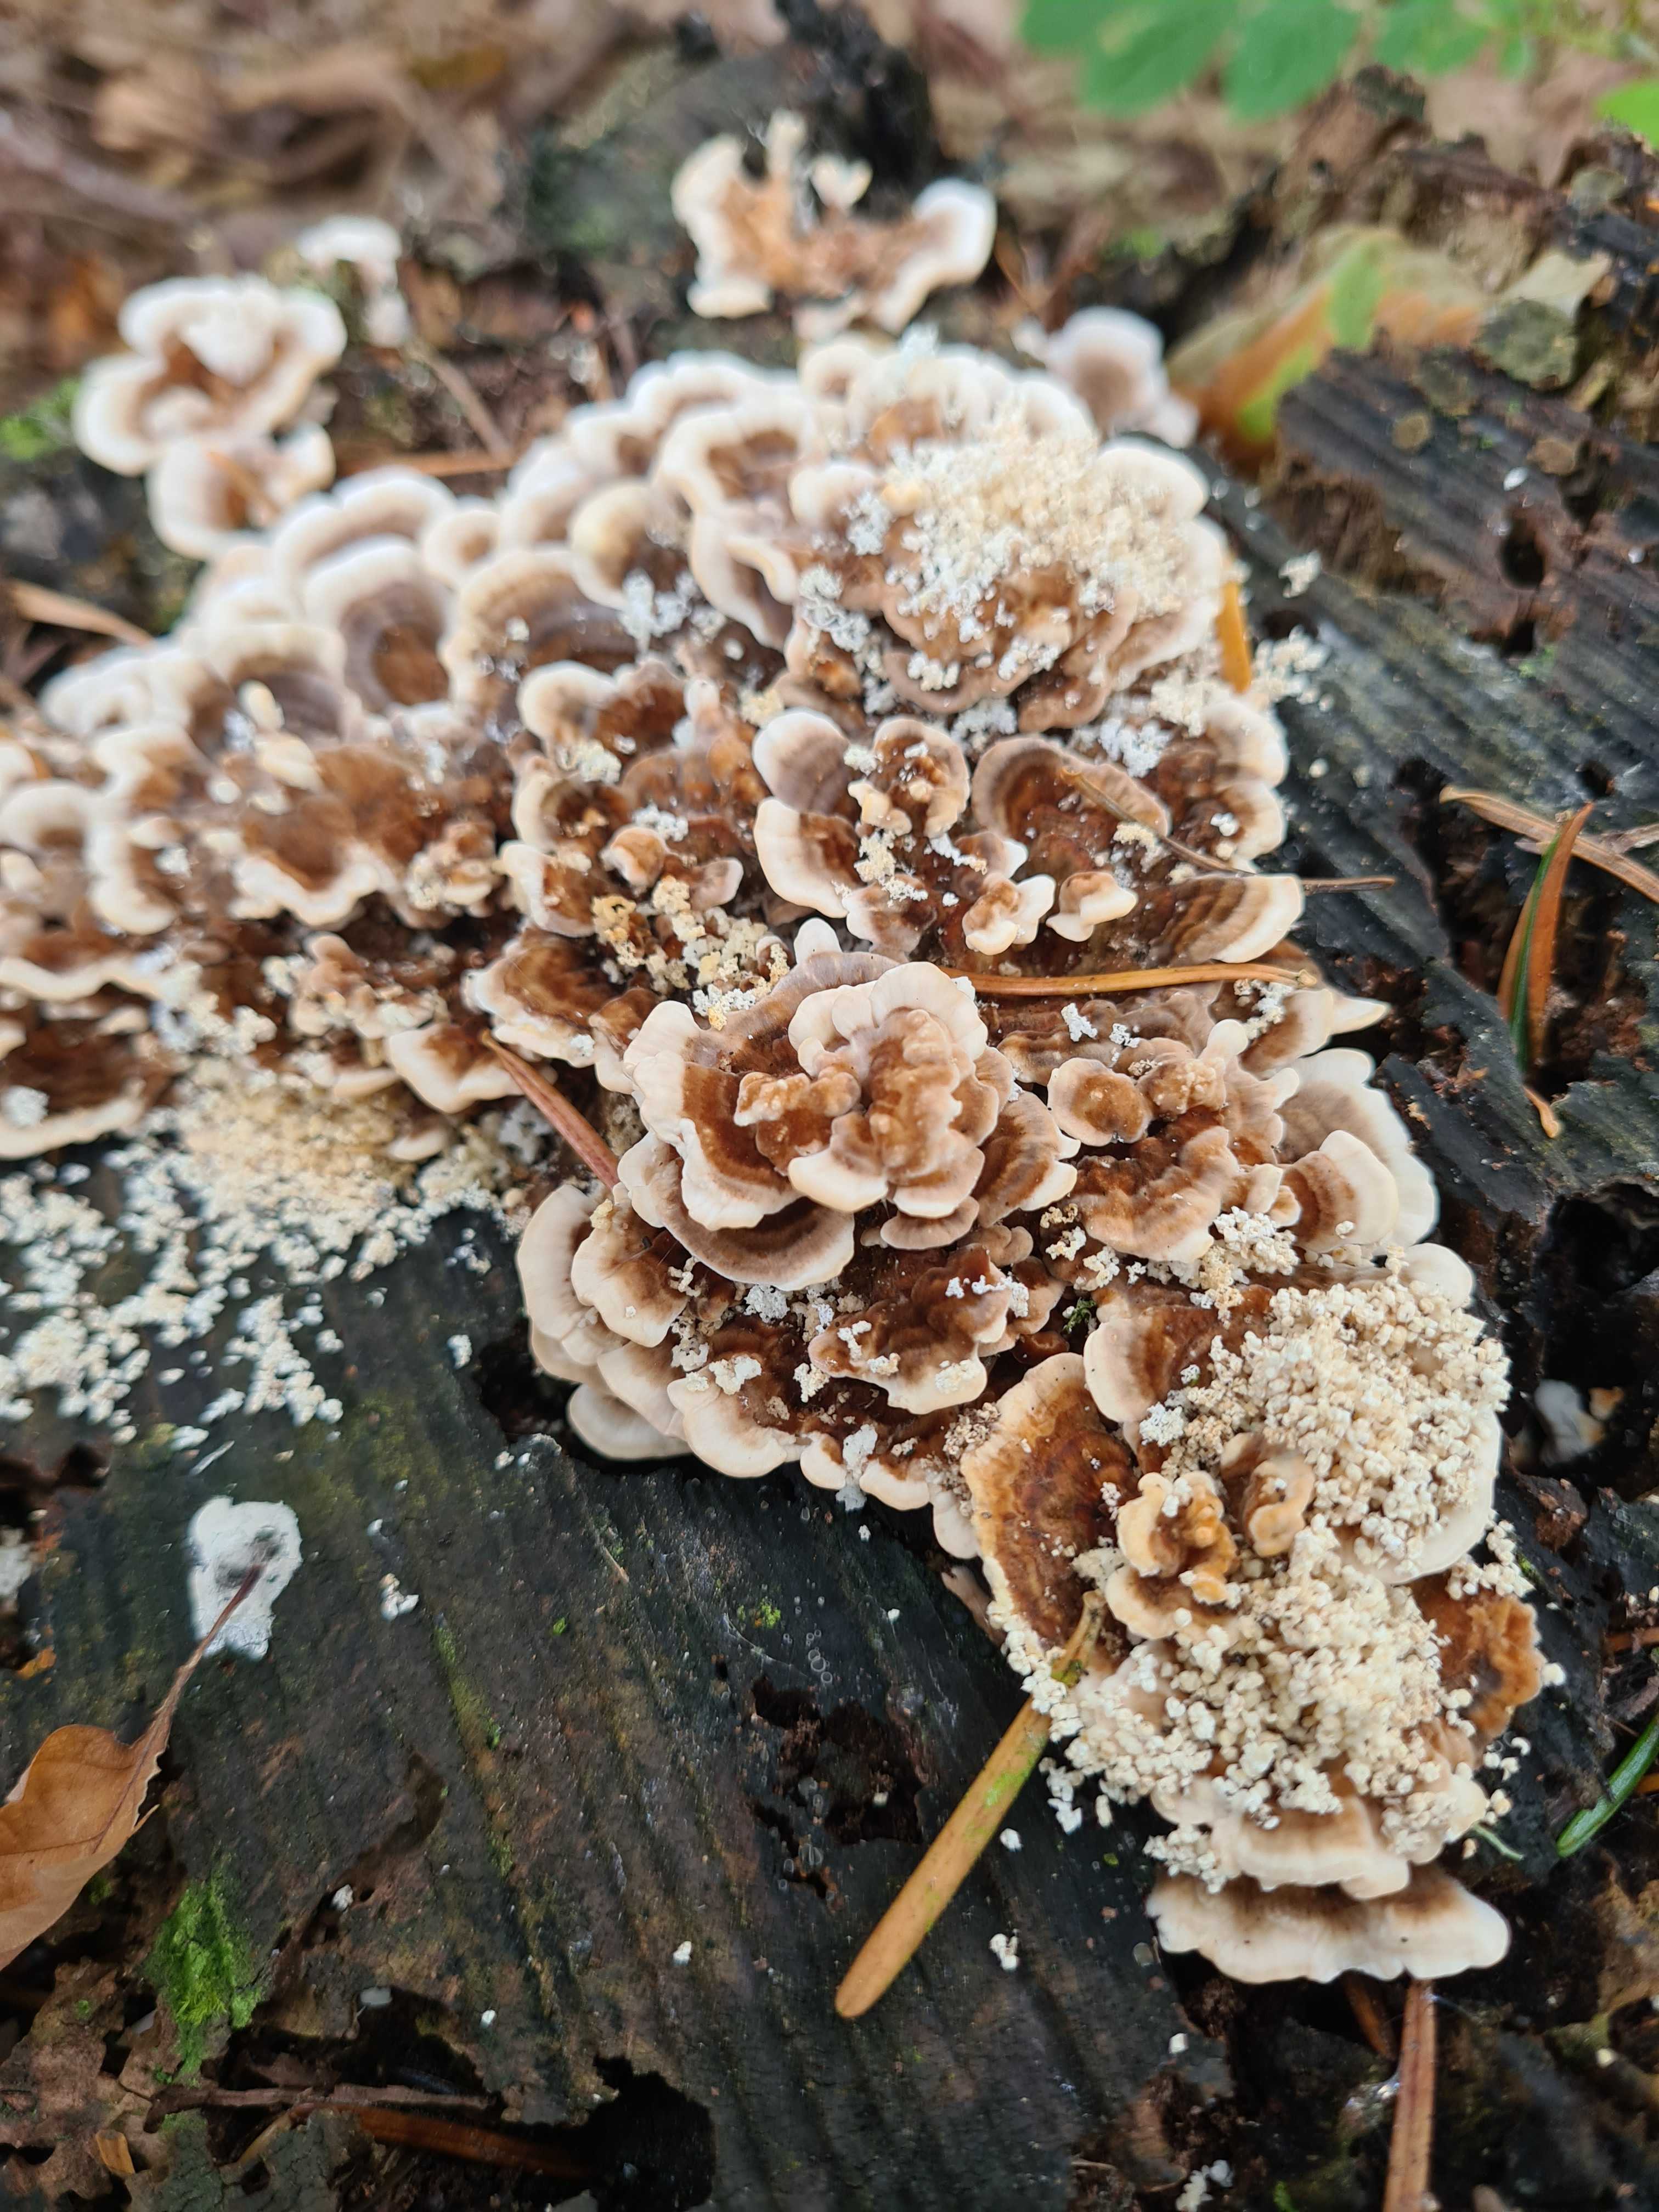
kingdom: Fungi
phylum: Basidiomycota
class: Agaricomycetes
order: Polyporales
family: Polyporaceae
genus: Trametes
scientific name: Trametes versicolor
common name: broget læderporesvamp
